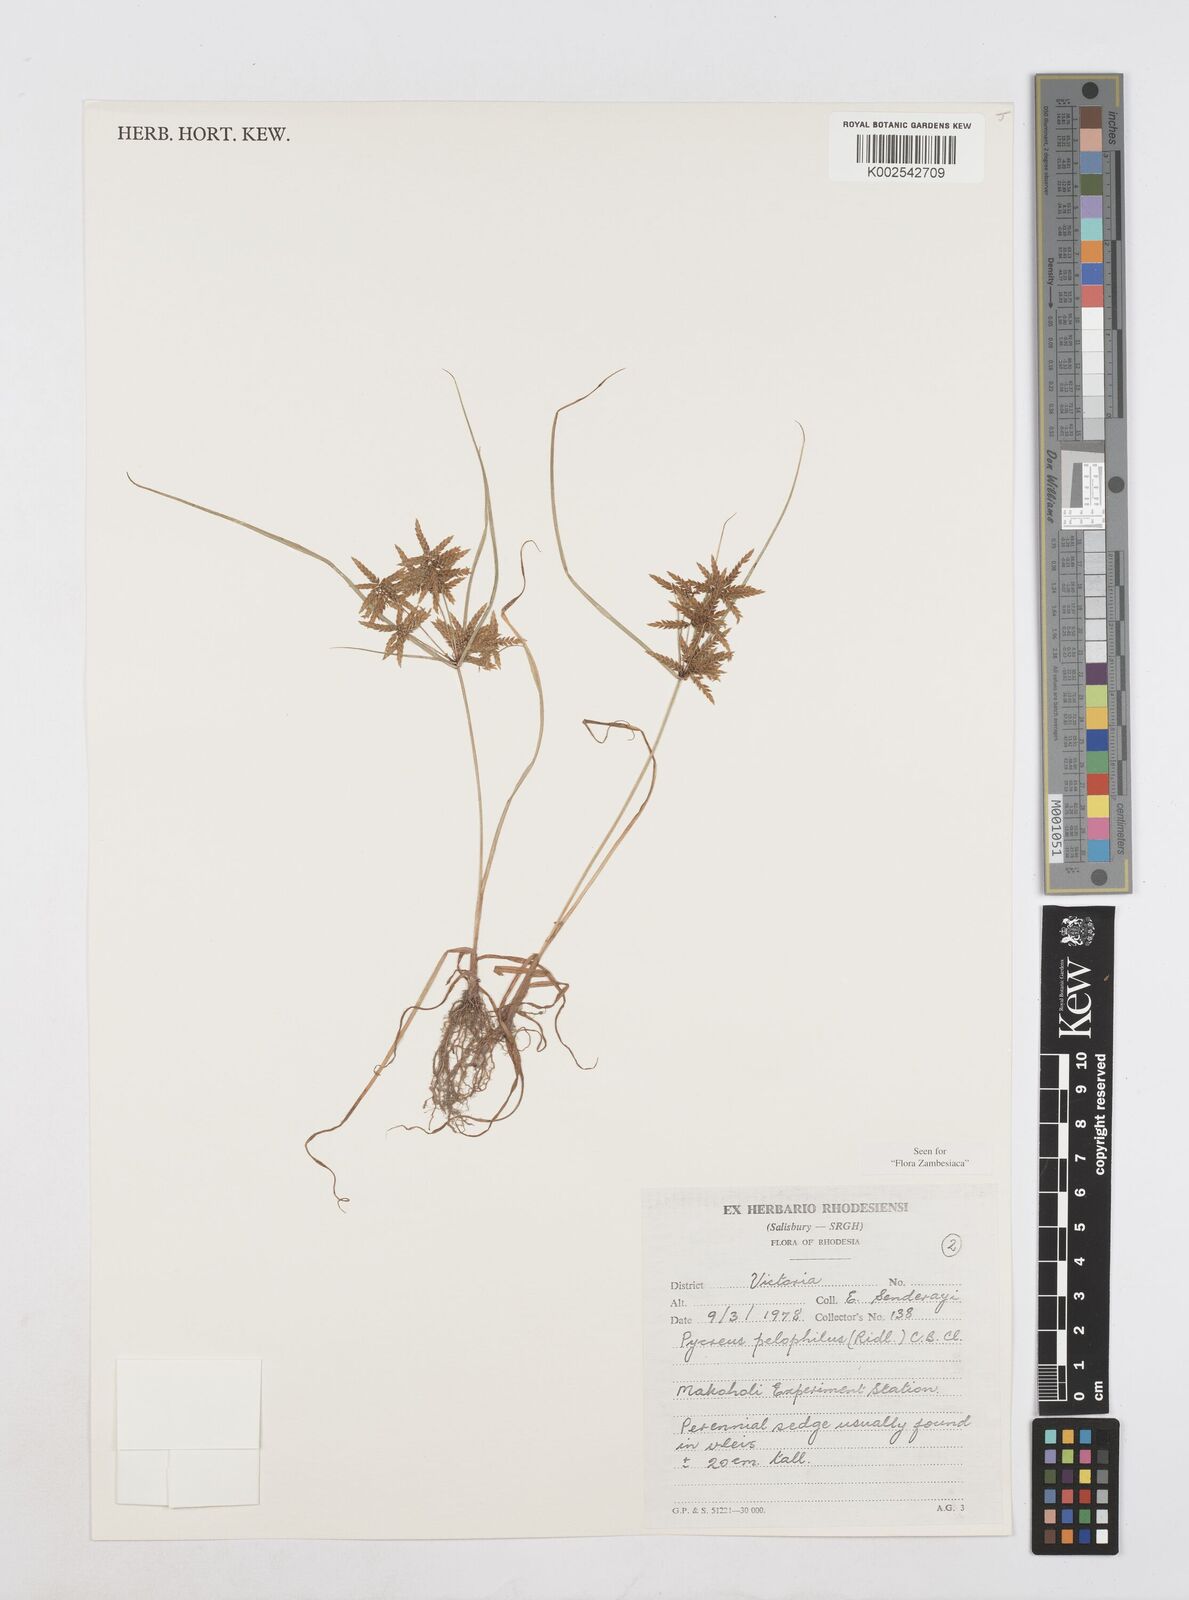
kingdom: Plantae
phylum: Tracheophyta
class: Liliopsida
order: Poales
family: Cyperaceae
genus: Cyperus
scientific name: Cyperus pelophilus
